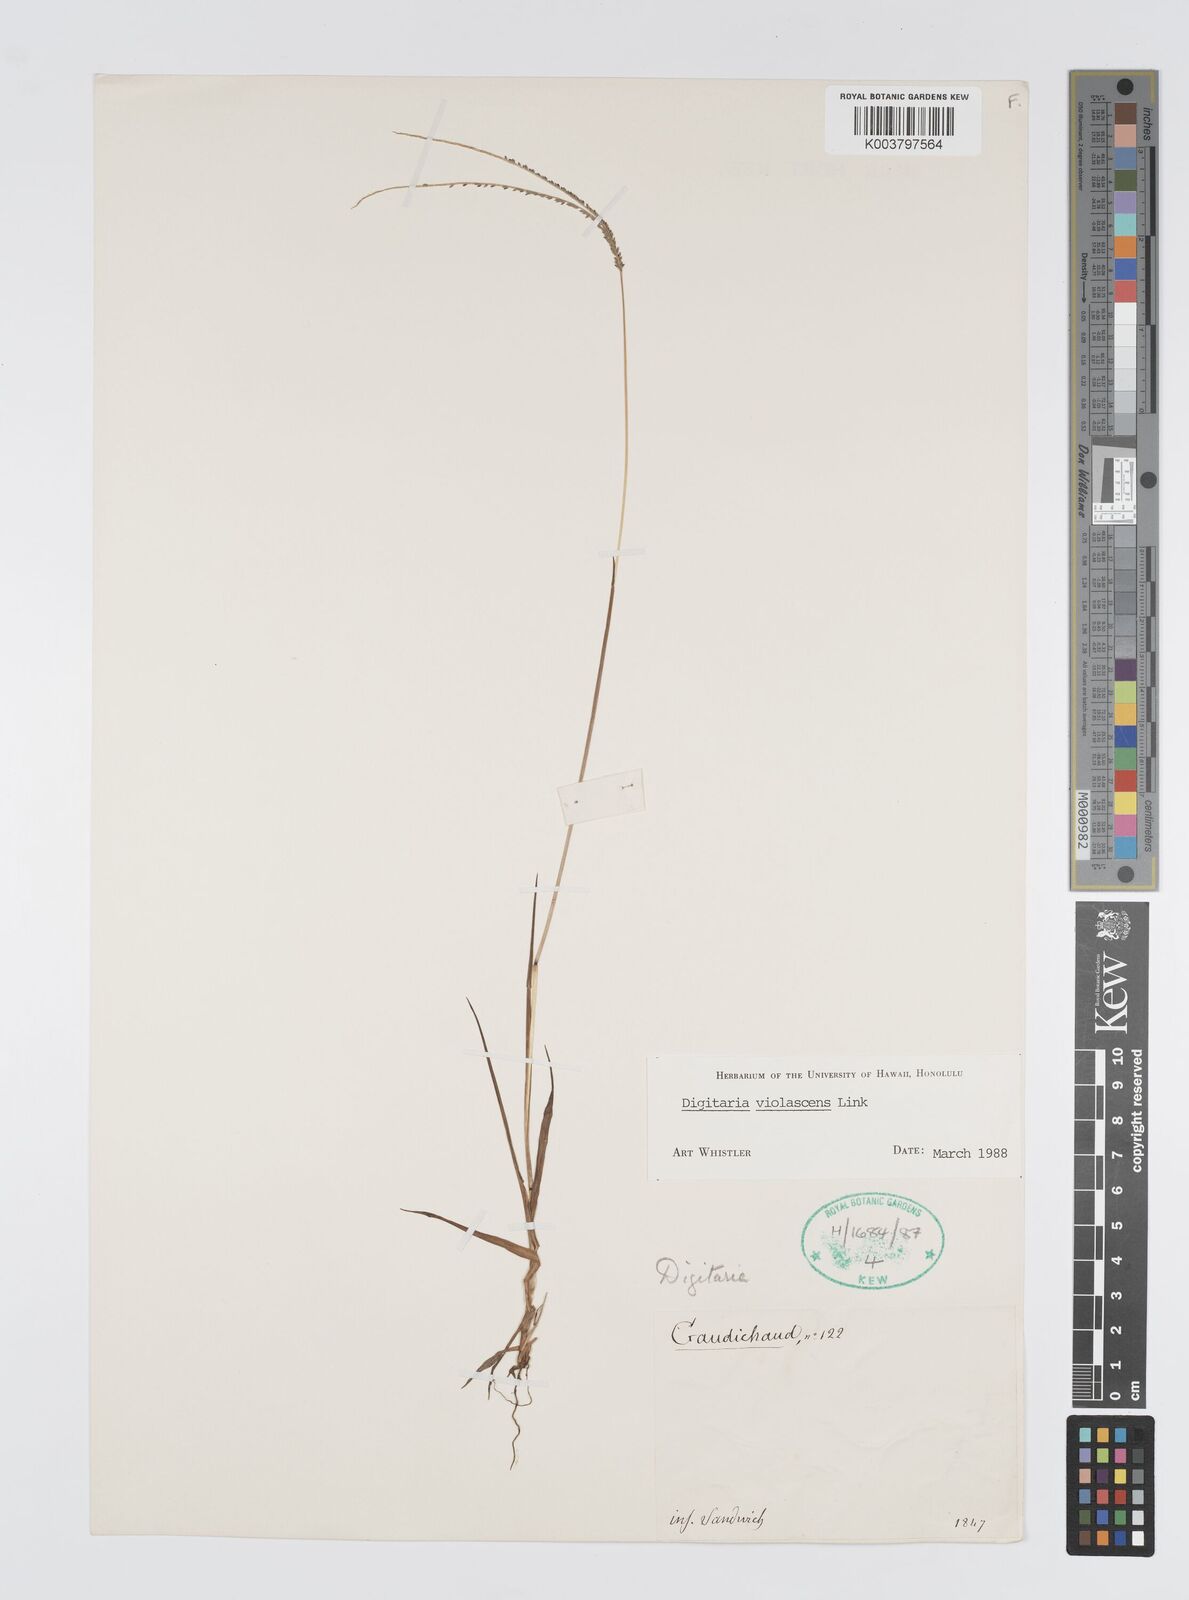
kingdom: Plantae
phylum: Tracheophyta
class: Liliopsida
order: Poales
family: Poaceae
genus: Digitaria
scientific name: Digitaria violascens
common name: Violet crabgrass
